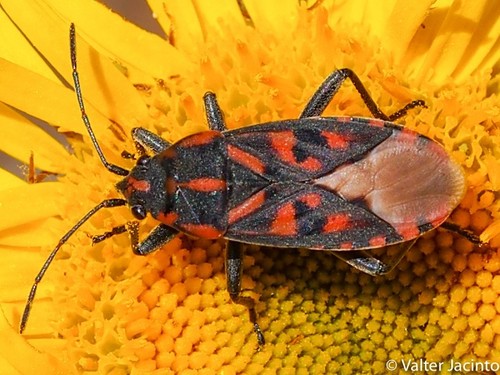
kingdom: Animalia
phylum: Arthropoda
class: Insecta
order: Hemiptera
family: Lygaeidae
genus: Spilostethus
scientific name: Spilostethus saxatilis
